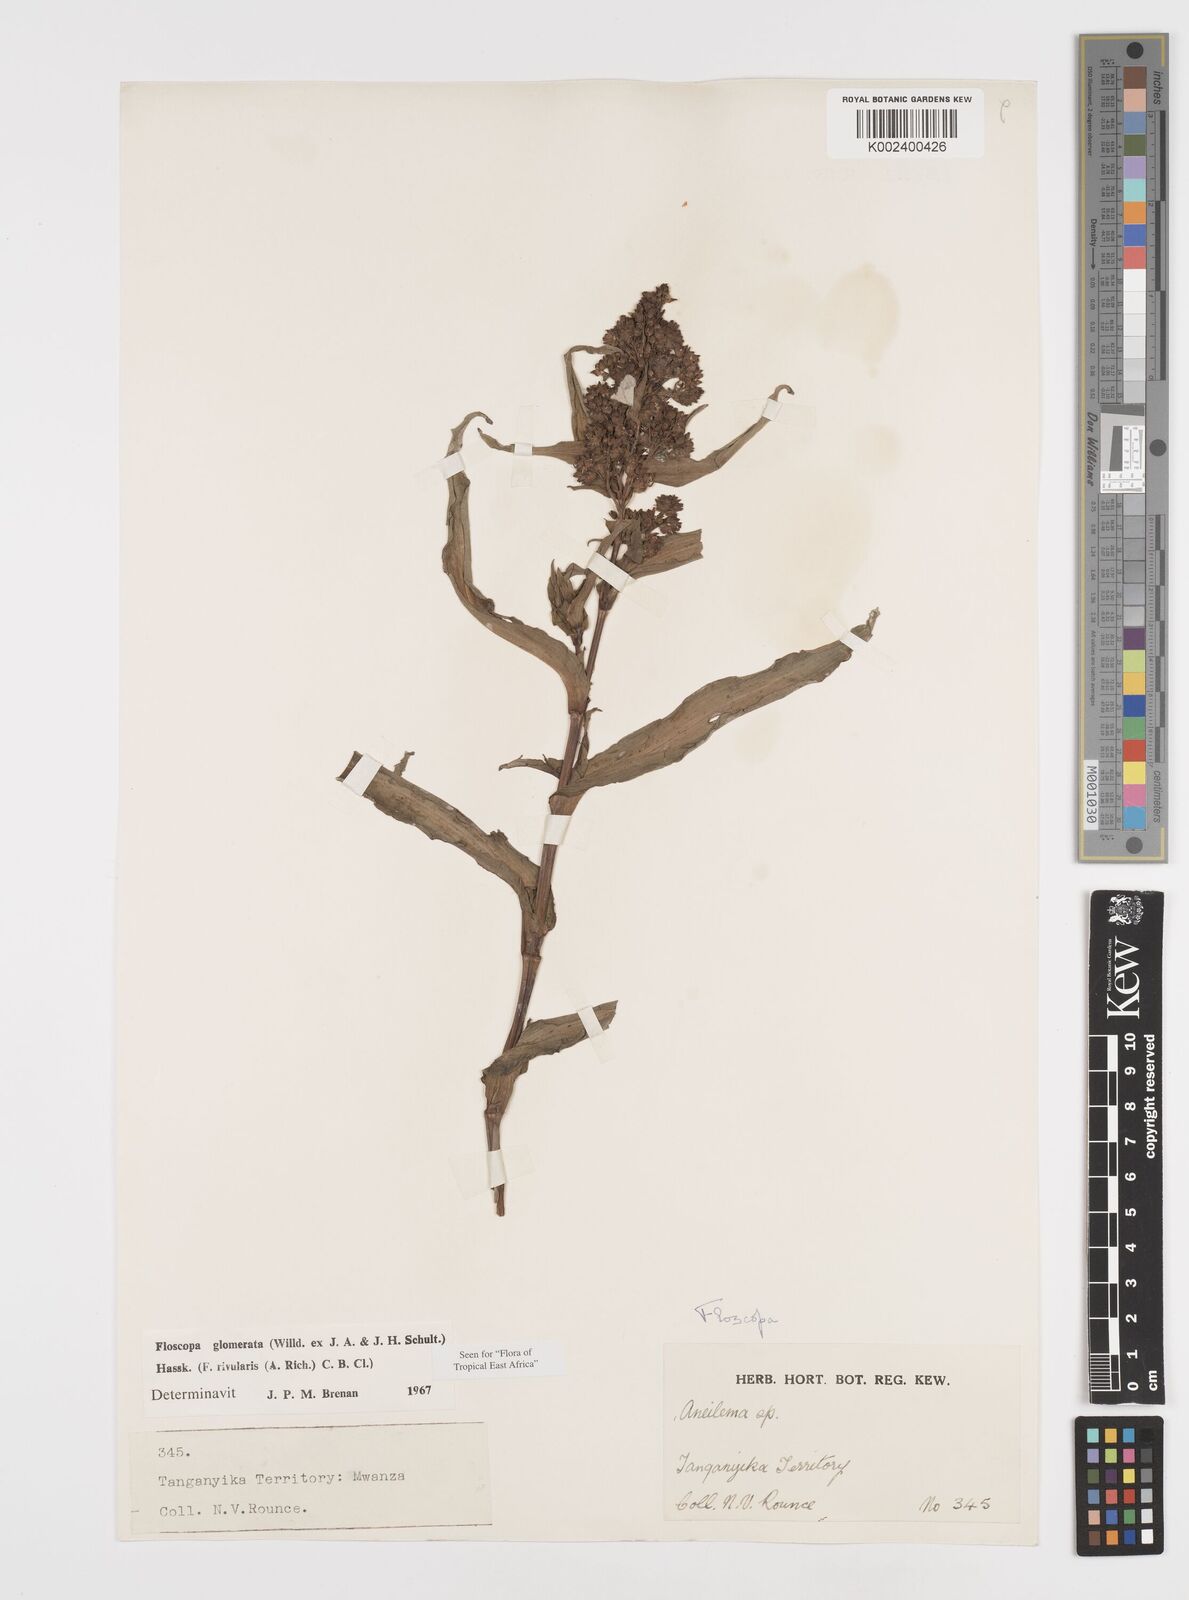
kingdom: Plantae
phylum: Tracheophyta
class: Liliopsida
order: Commelinales
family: Commelinaceae
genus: Floscopa
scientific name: Floscopa glomerata
